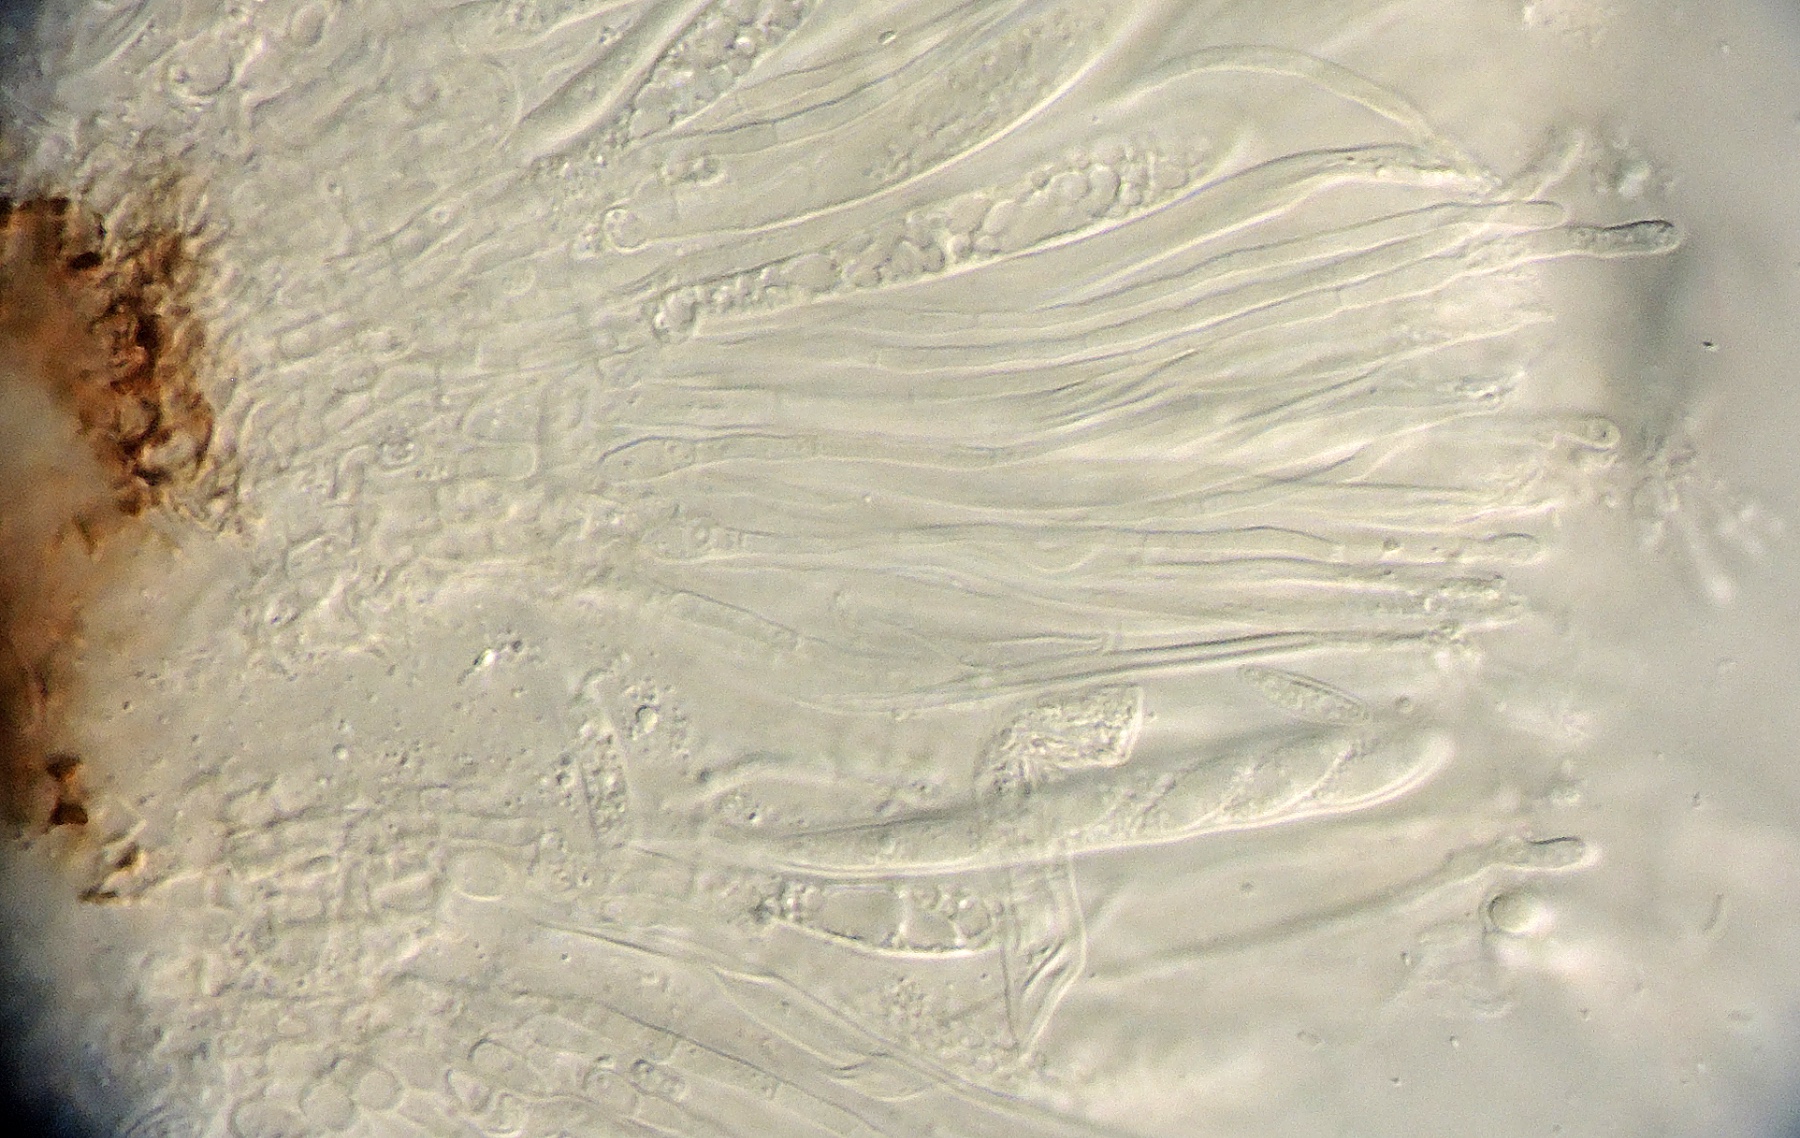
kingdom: Fungi
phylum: Ascomycota
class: Leotiomycetes
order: Phacidiales
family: Phacidiaceae
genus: Phacidium
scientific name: Phacidium
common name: tandskive
